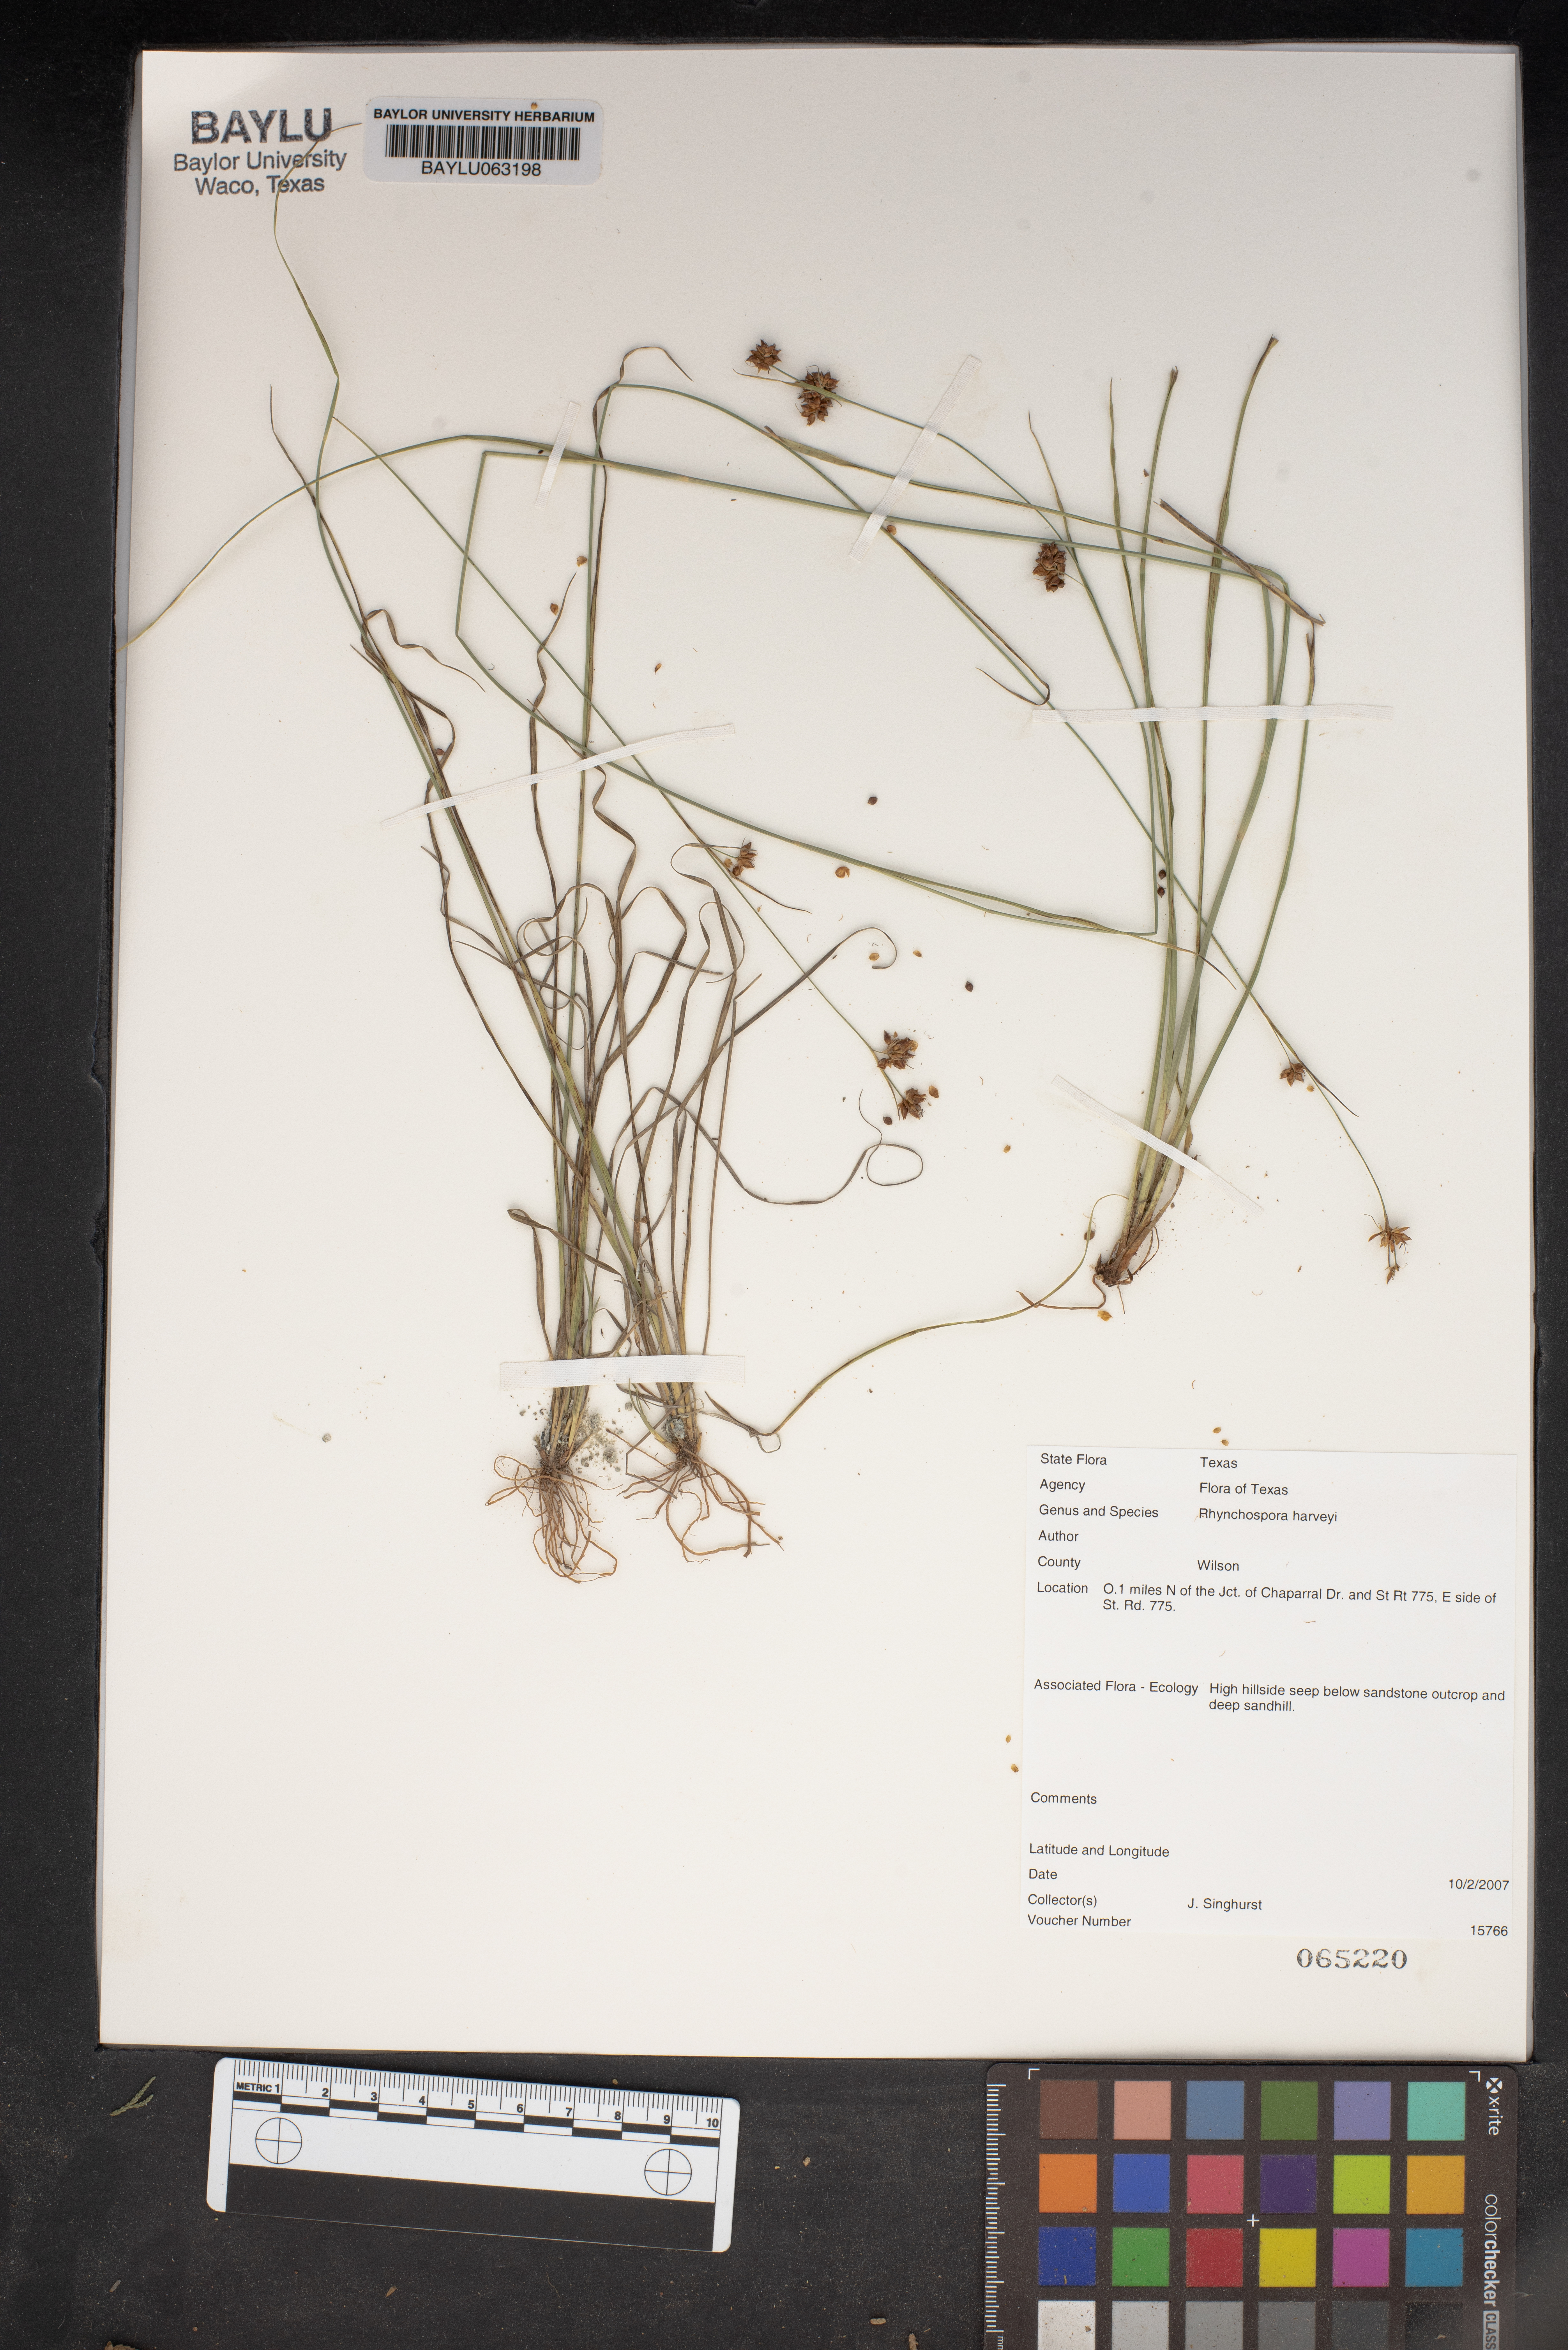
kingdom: Plantae
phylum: Tracheophyta
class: Liliopsida
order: Poales
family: Cyperaceae
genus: Rhynchospora
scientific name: Rhynchospora harveyi
